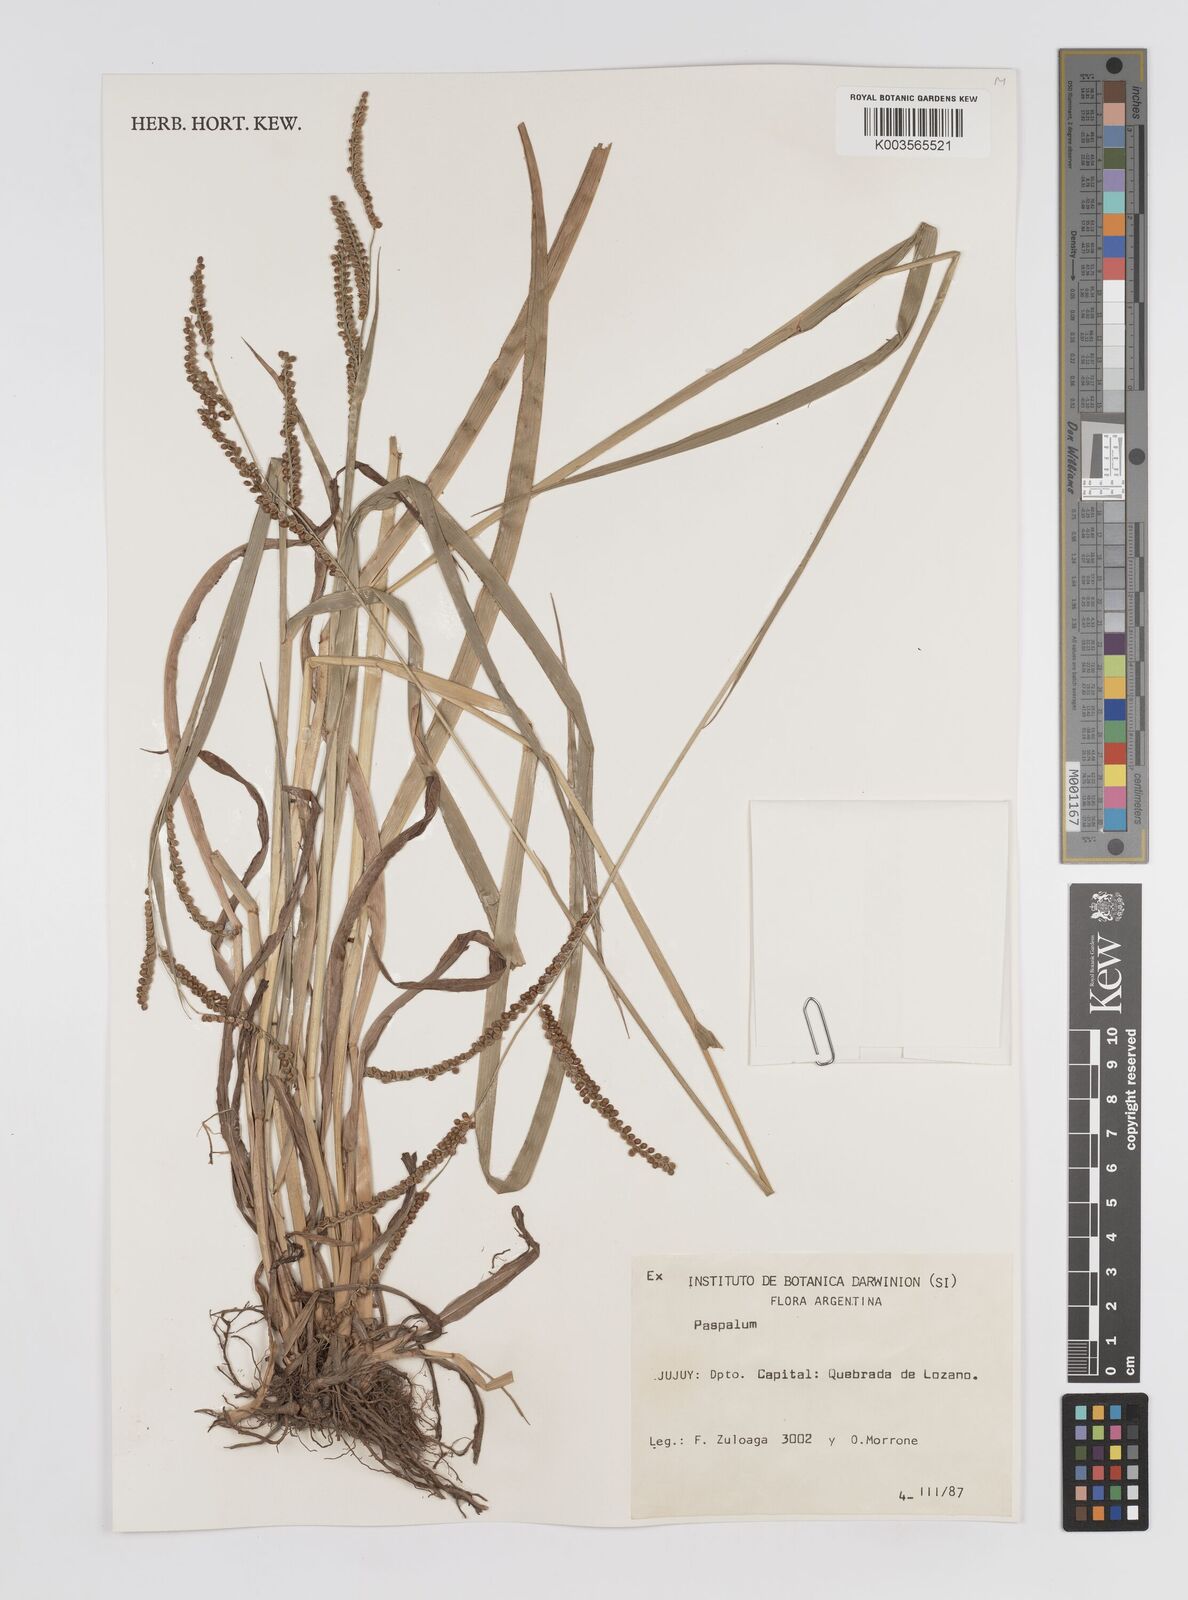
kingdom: Plantae
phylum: Tracheophyta
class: Liliopsida
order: Poales
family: Poaceae
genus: Paspalum
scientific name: Paspalum
